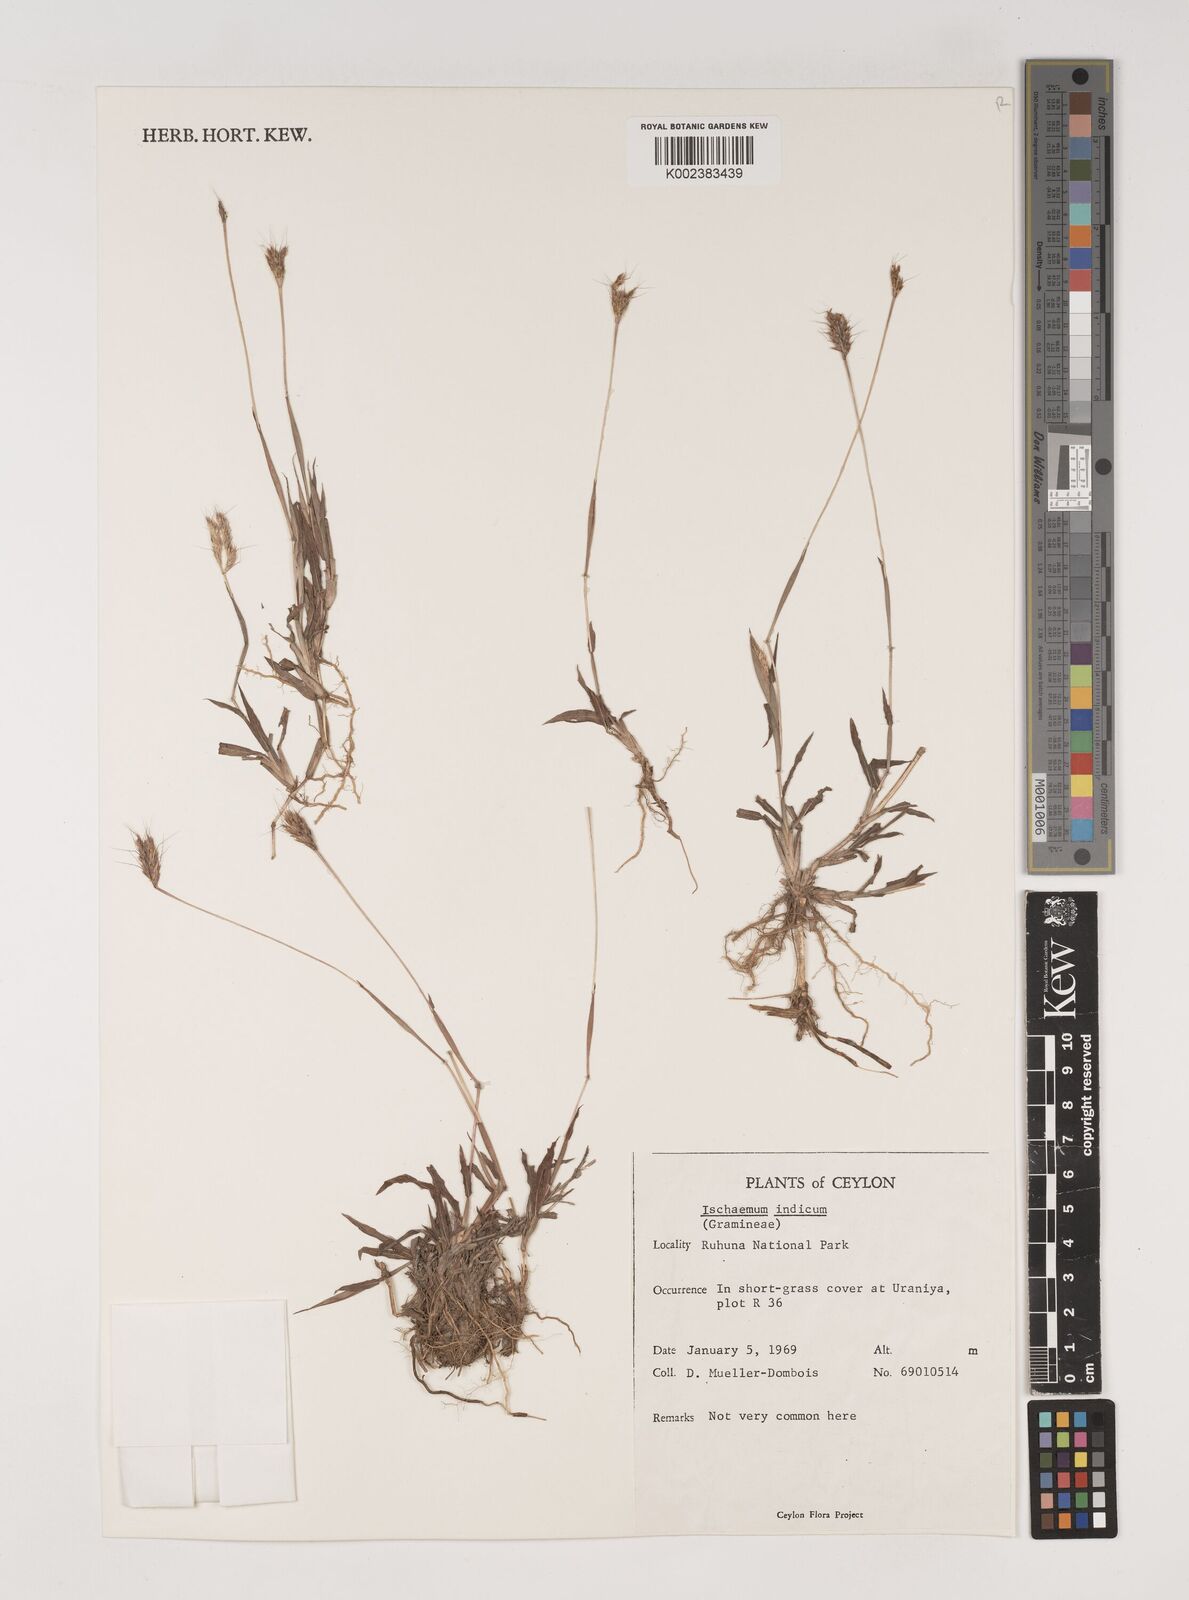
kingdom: Plantae
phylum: Tracheophyta
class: Liliopsida
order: Poales
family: Poaceae
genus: Polytrias
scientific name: Polytrias indica
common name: Indian murainagrass
